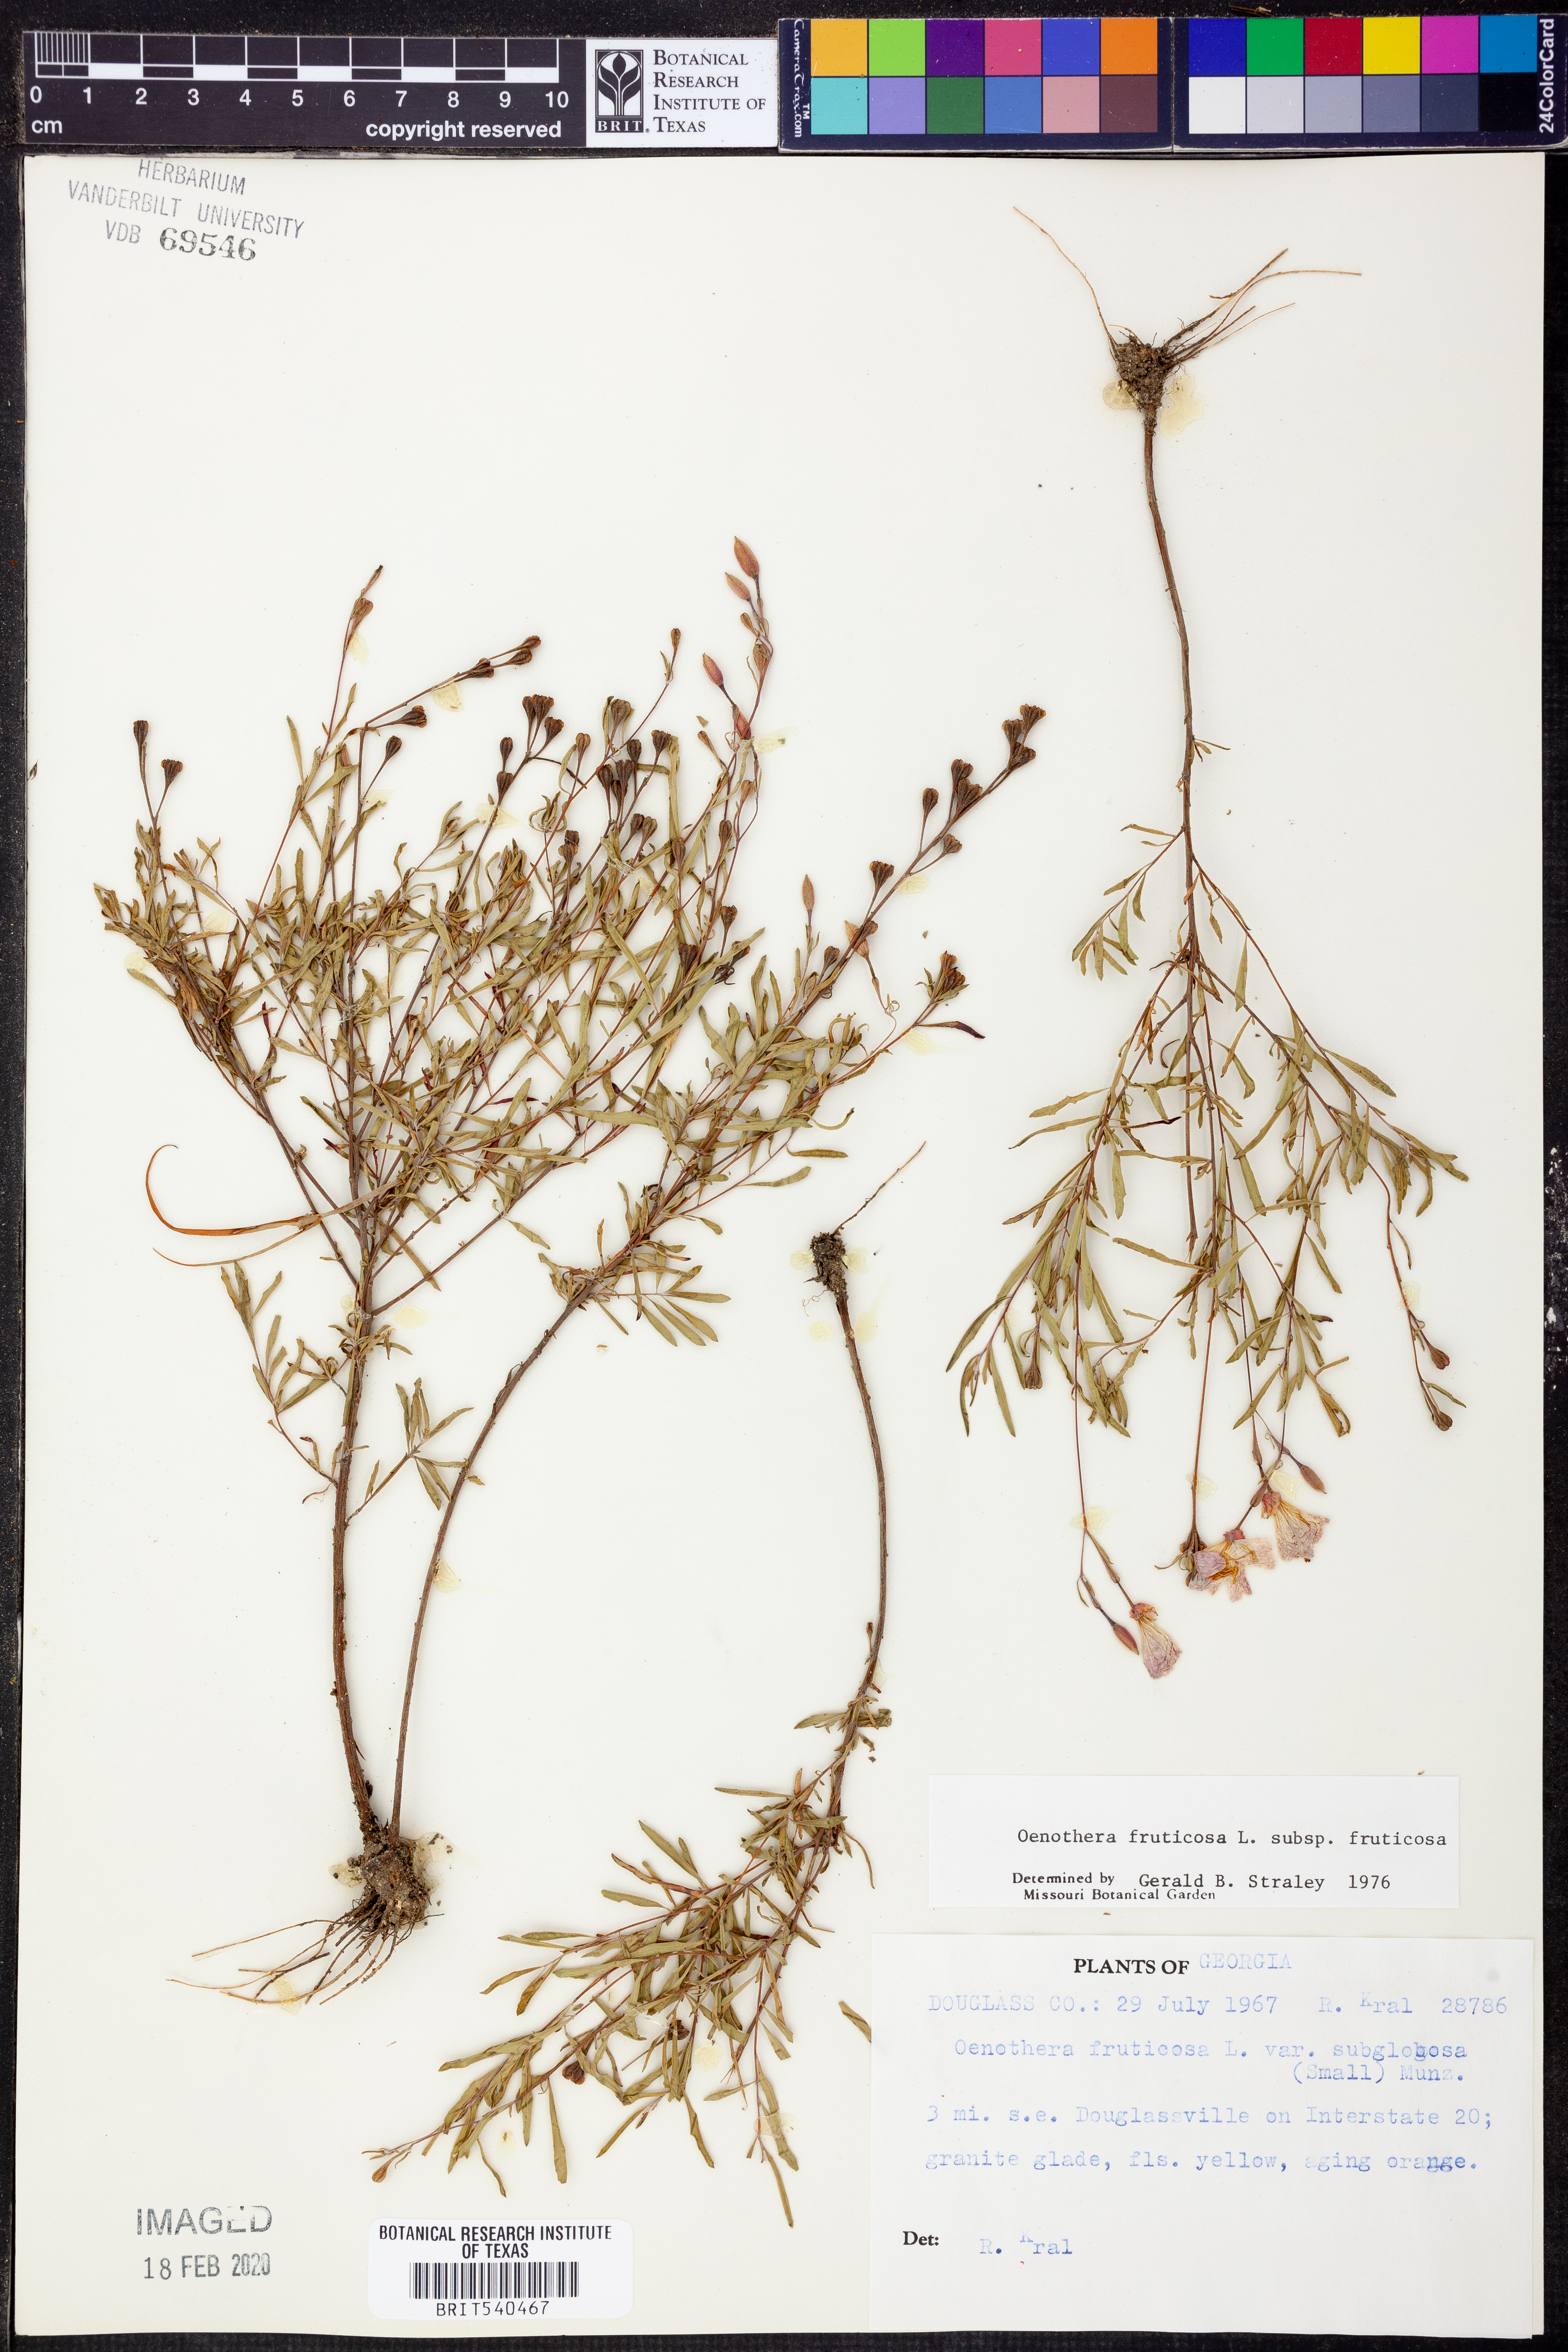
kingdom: Plantae
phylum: Tracheophyta
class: Magnoliopsida
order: Myrtales
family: Onagraceae
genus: Oenothera
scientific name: Oenothera fruticosa
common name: Southern sundrops
